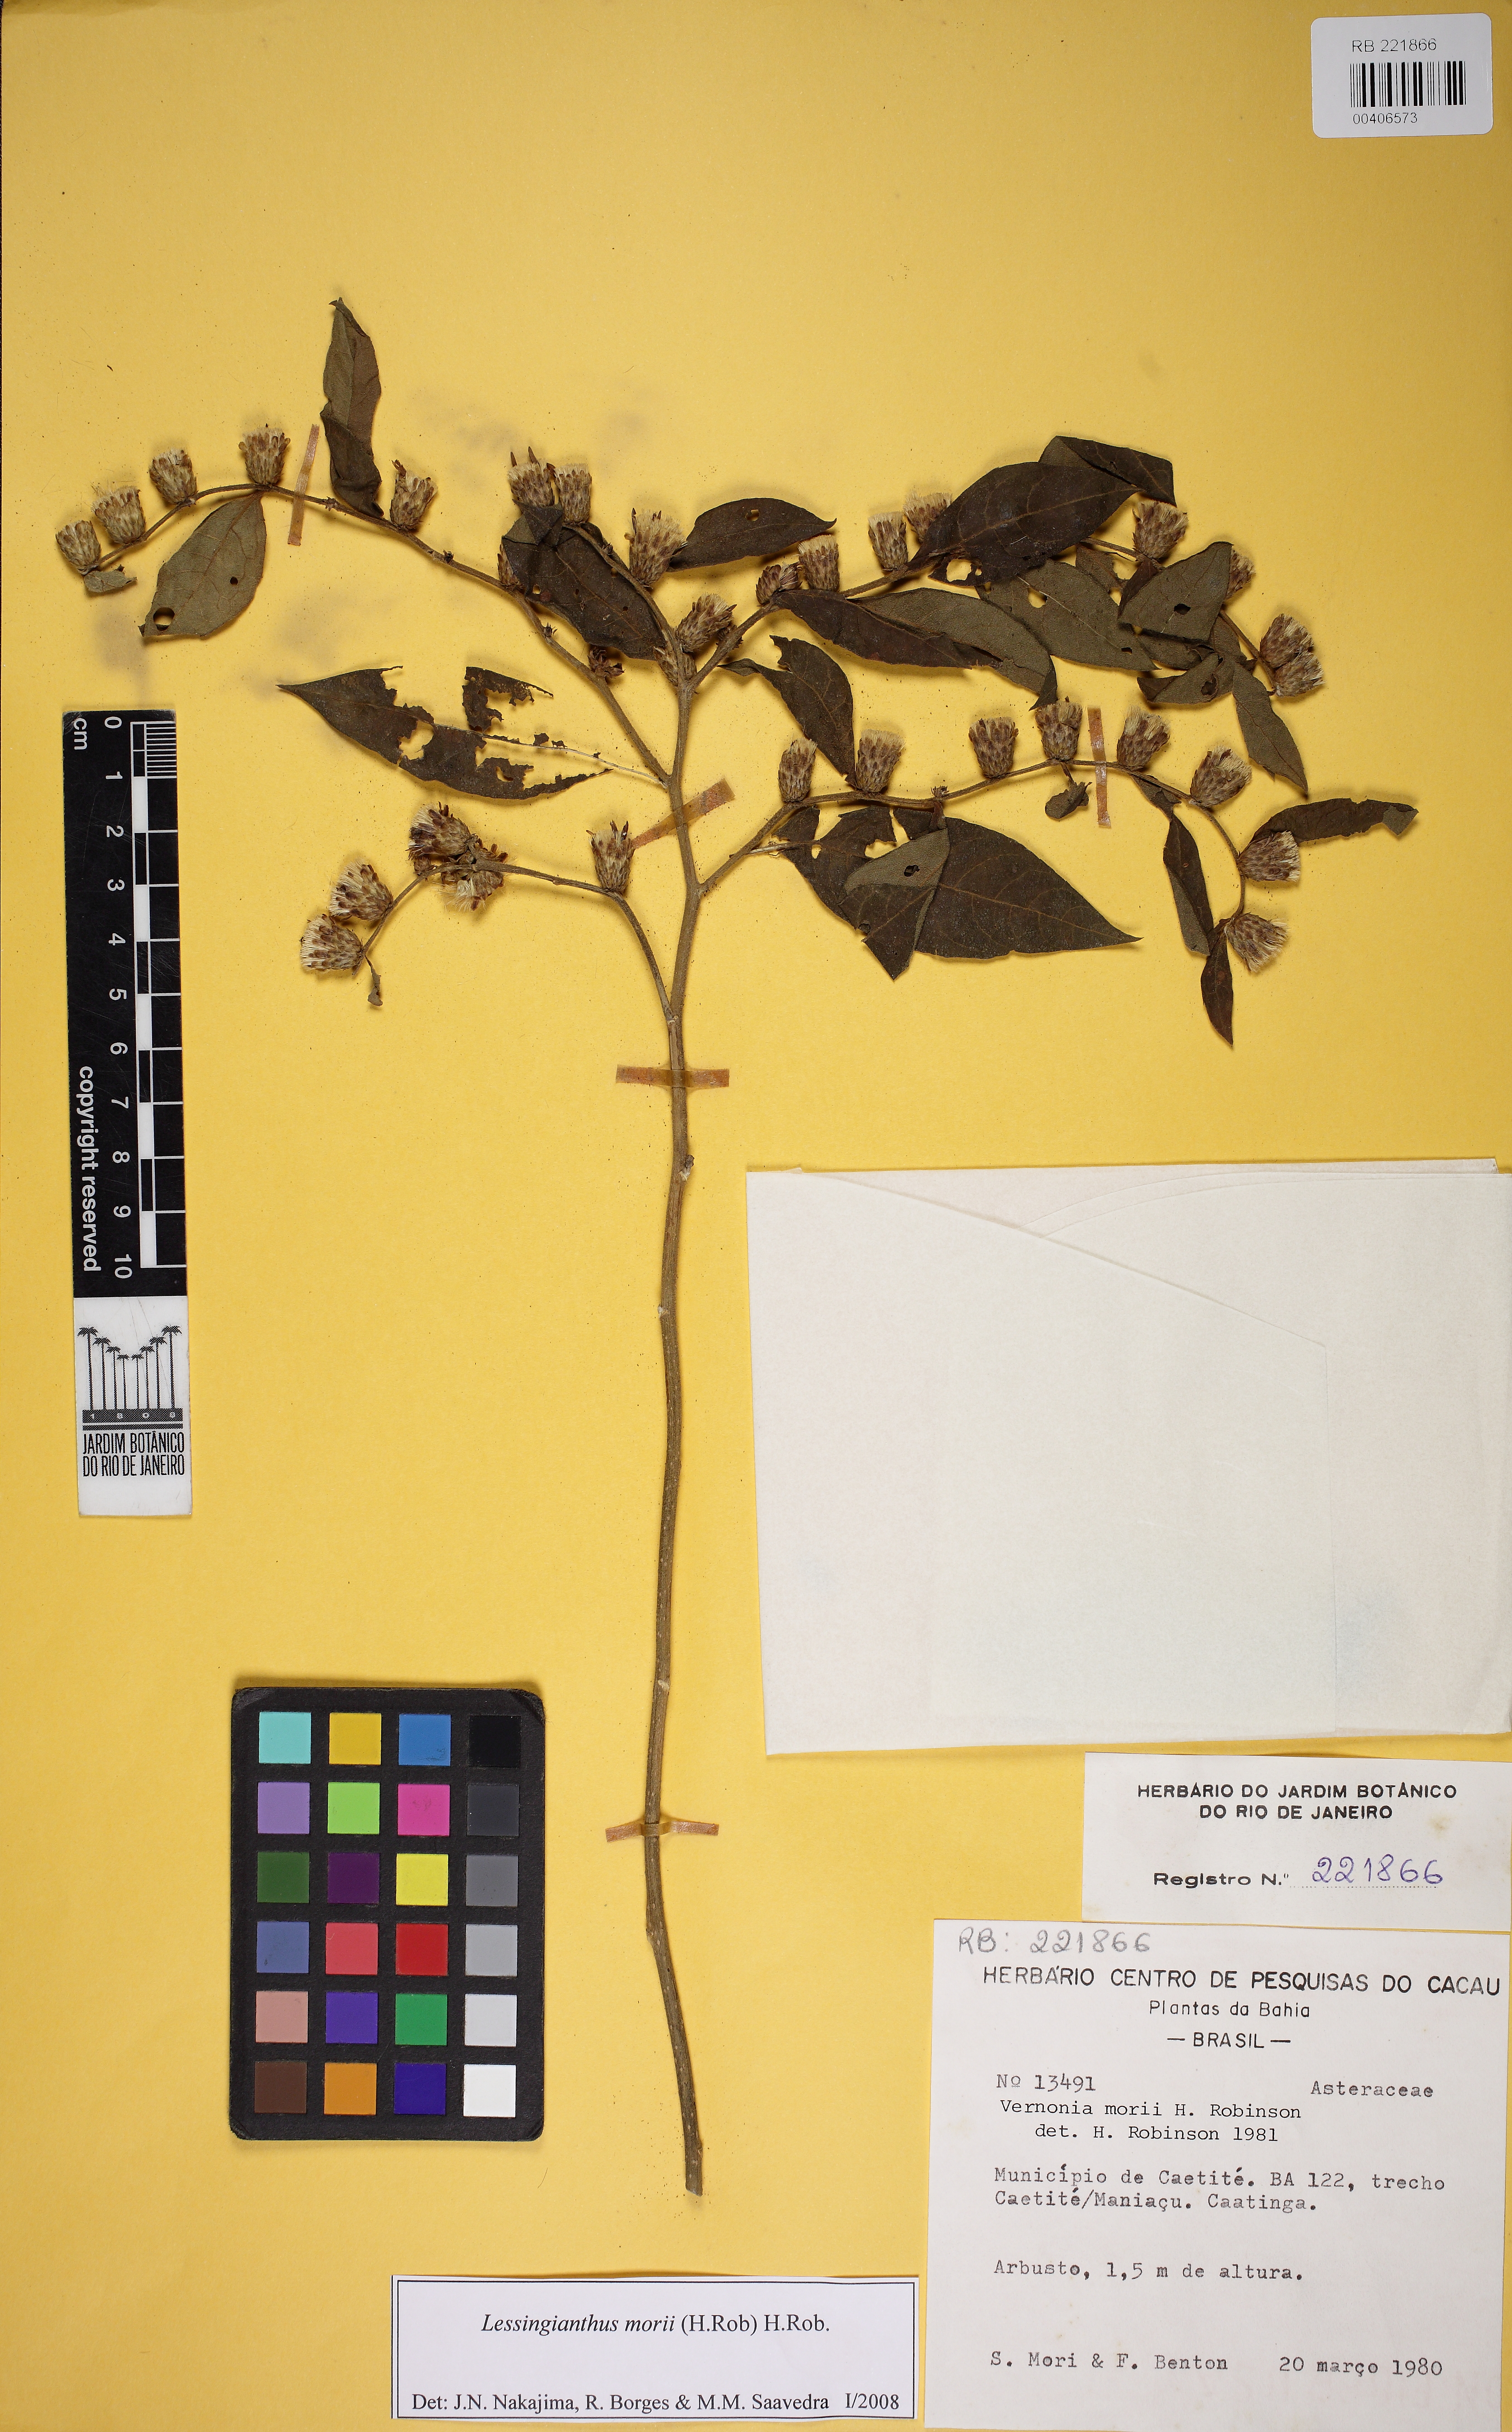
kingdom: Plantae
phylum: Tracheophyta
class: Magnoliopsida
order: Asterales
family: Asteraceae
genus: Lessingianthus
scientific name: Lessingianthus morii
